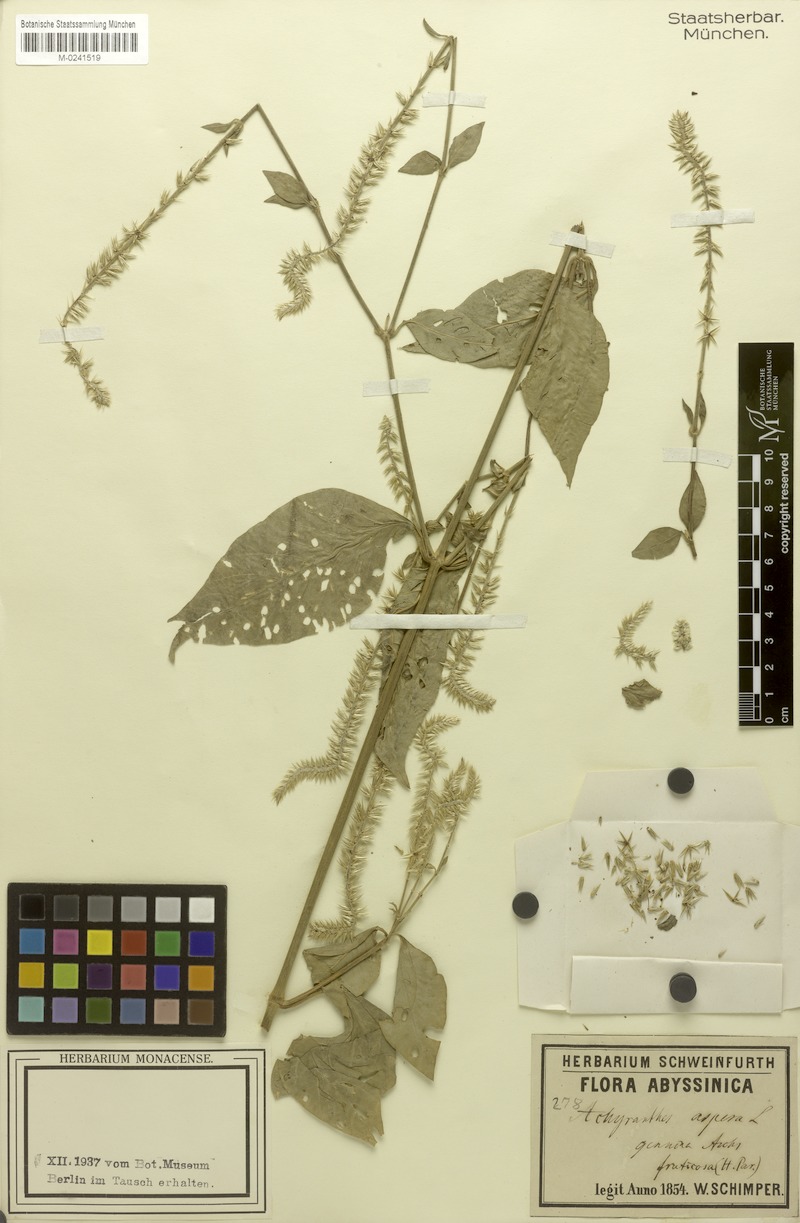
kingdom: Plantae
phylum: Tracheophyta
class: Magnoliopsida
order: Caryophyllales
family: Amaranthaceae
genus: Achyranthes
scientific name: Achyranthes aspera
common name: Devil's horsewhip
